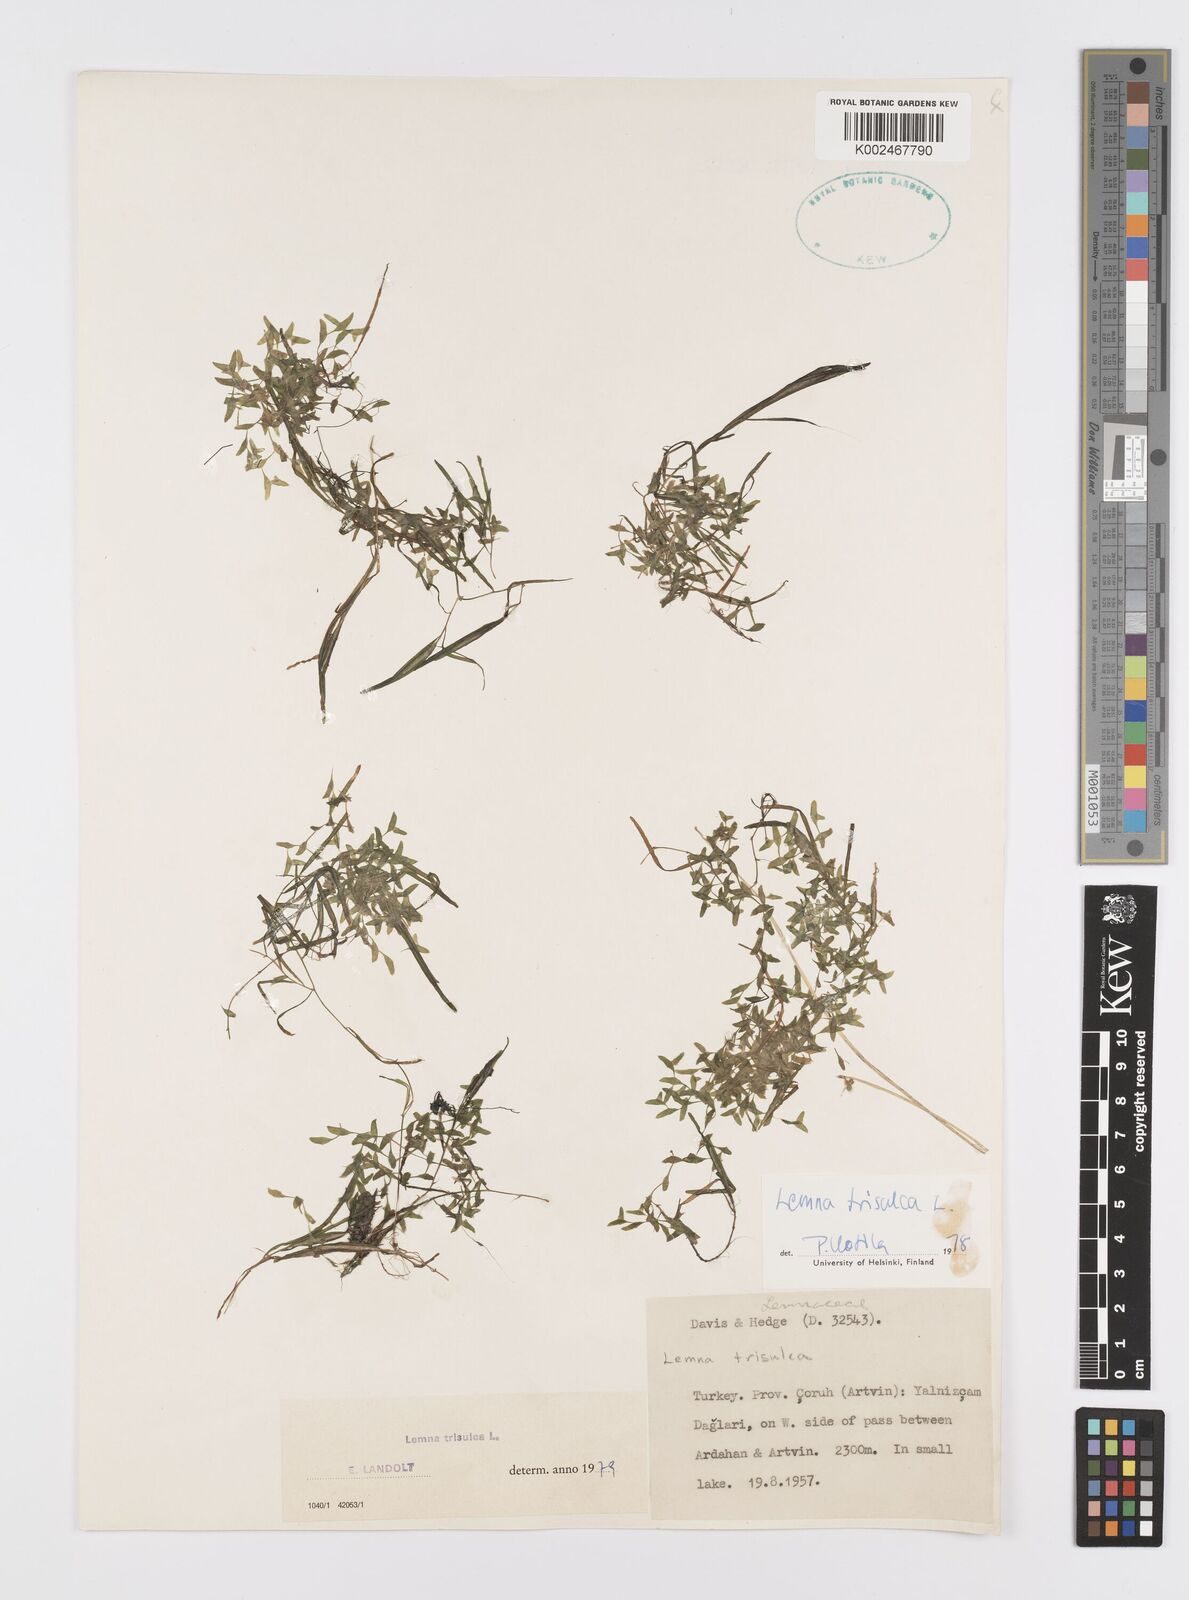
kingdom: Plantae
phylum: Tracheophyta
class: Liliopsida
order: Alismatales
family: Araceae
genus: Lemna
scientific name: Lemna trisulca
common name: Ivy-leaved duckweed
